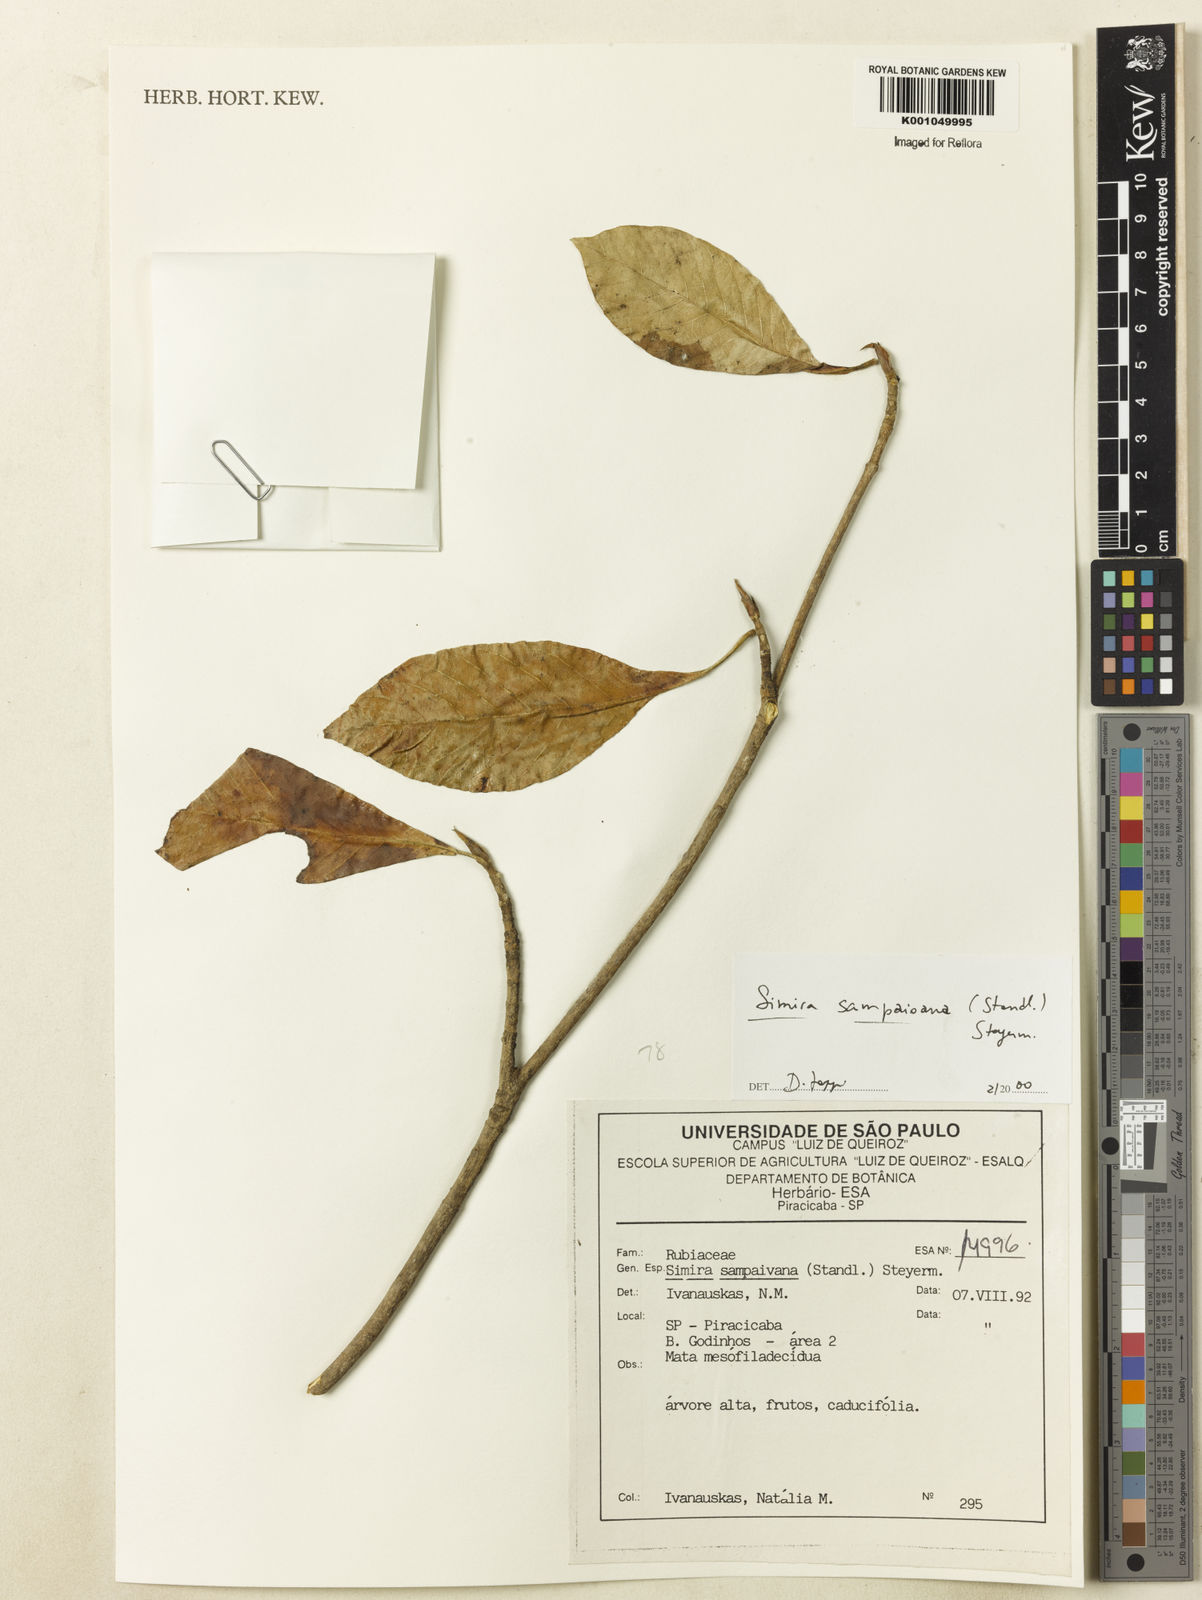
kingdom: Plantae
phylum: Tracheophyta
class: Magnoliopsida
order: Gentianales
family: Rubiaceae
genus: Simira
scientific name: Simira sampaioana
